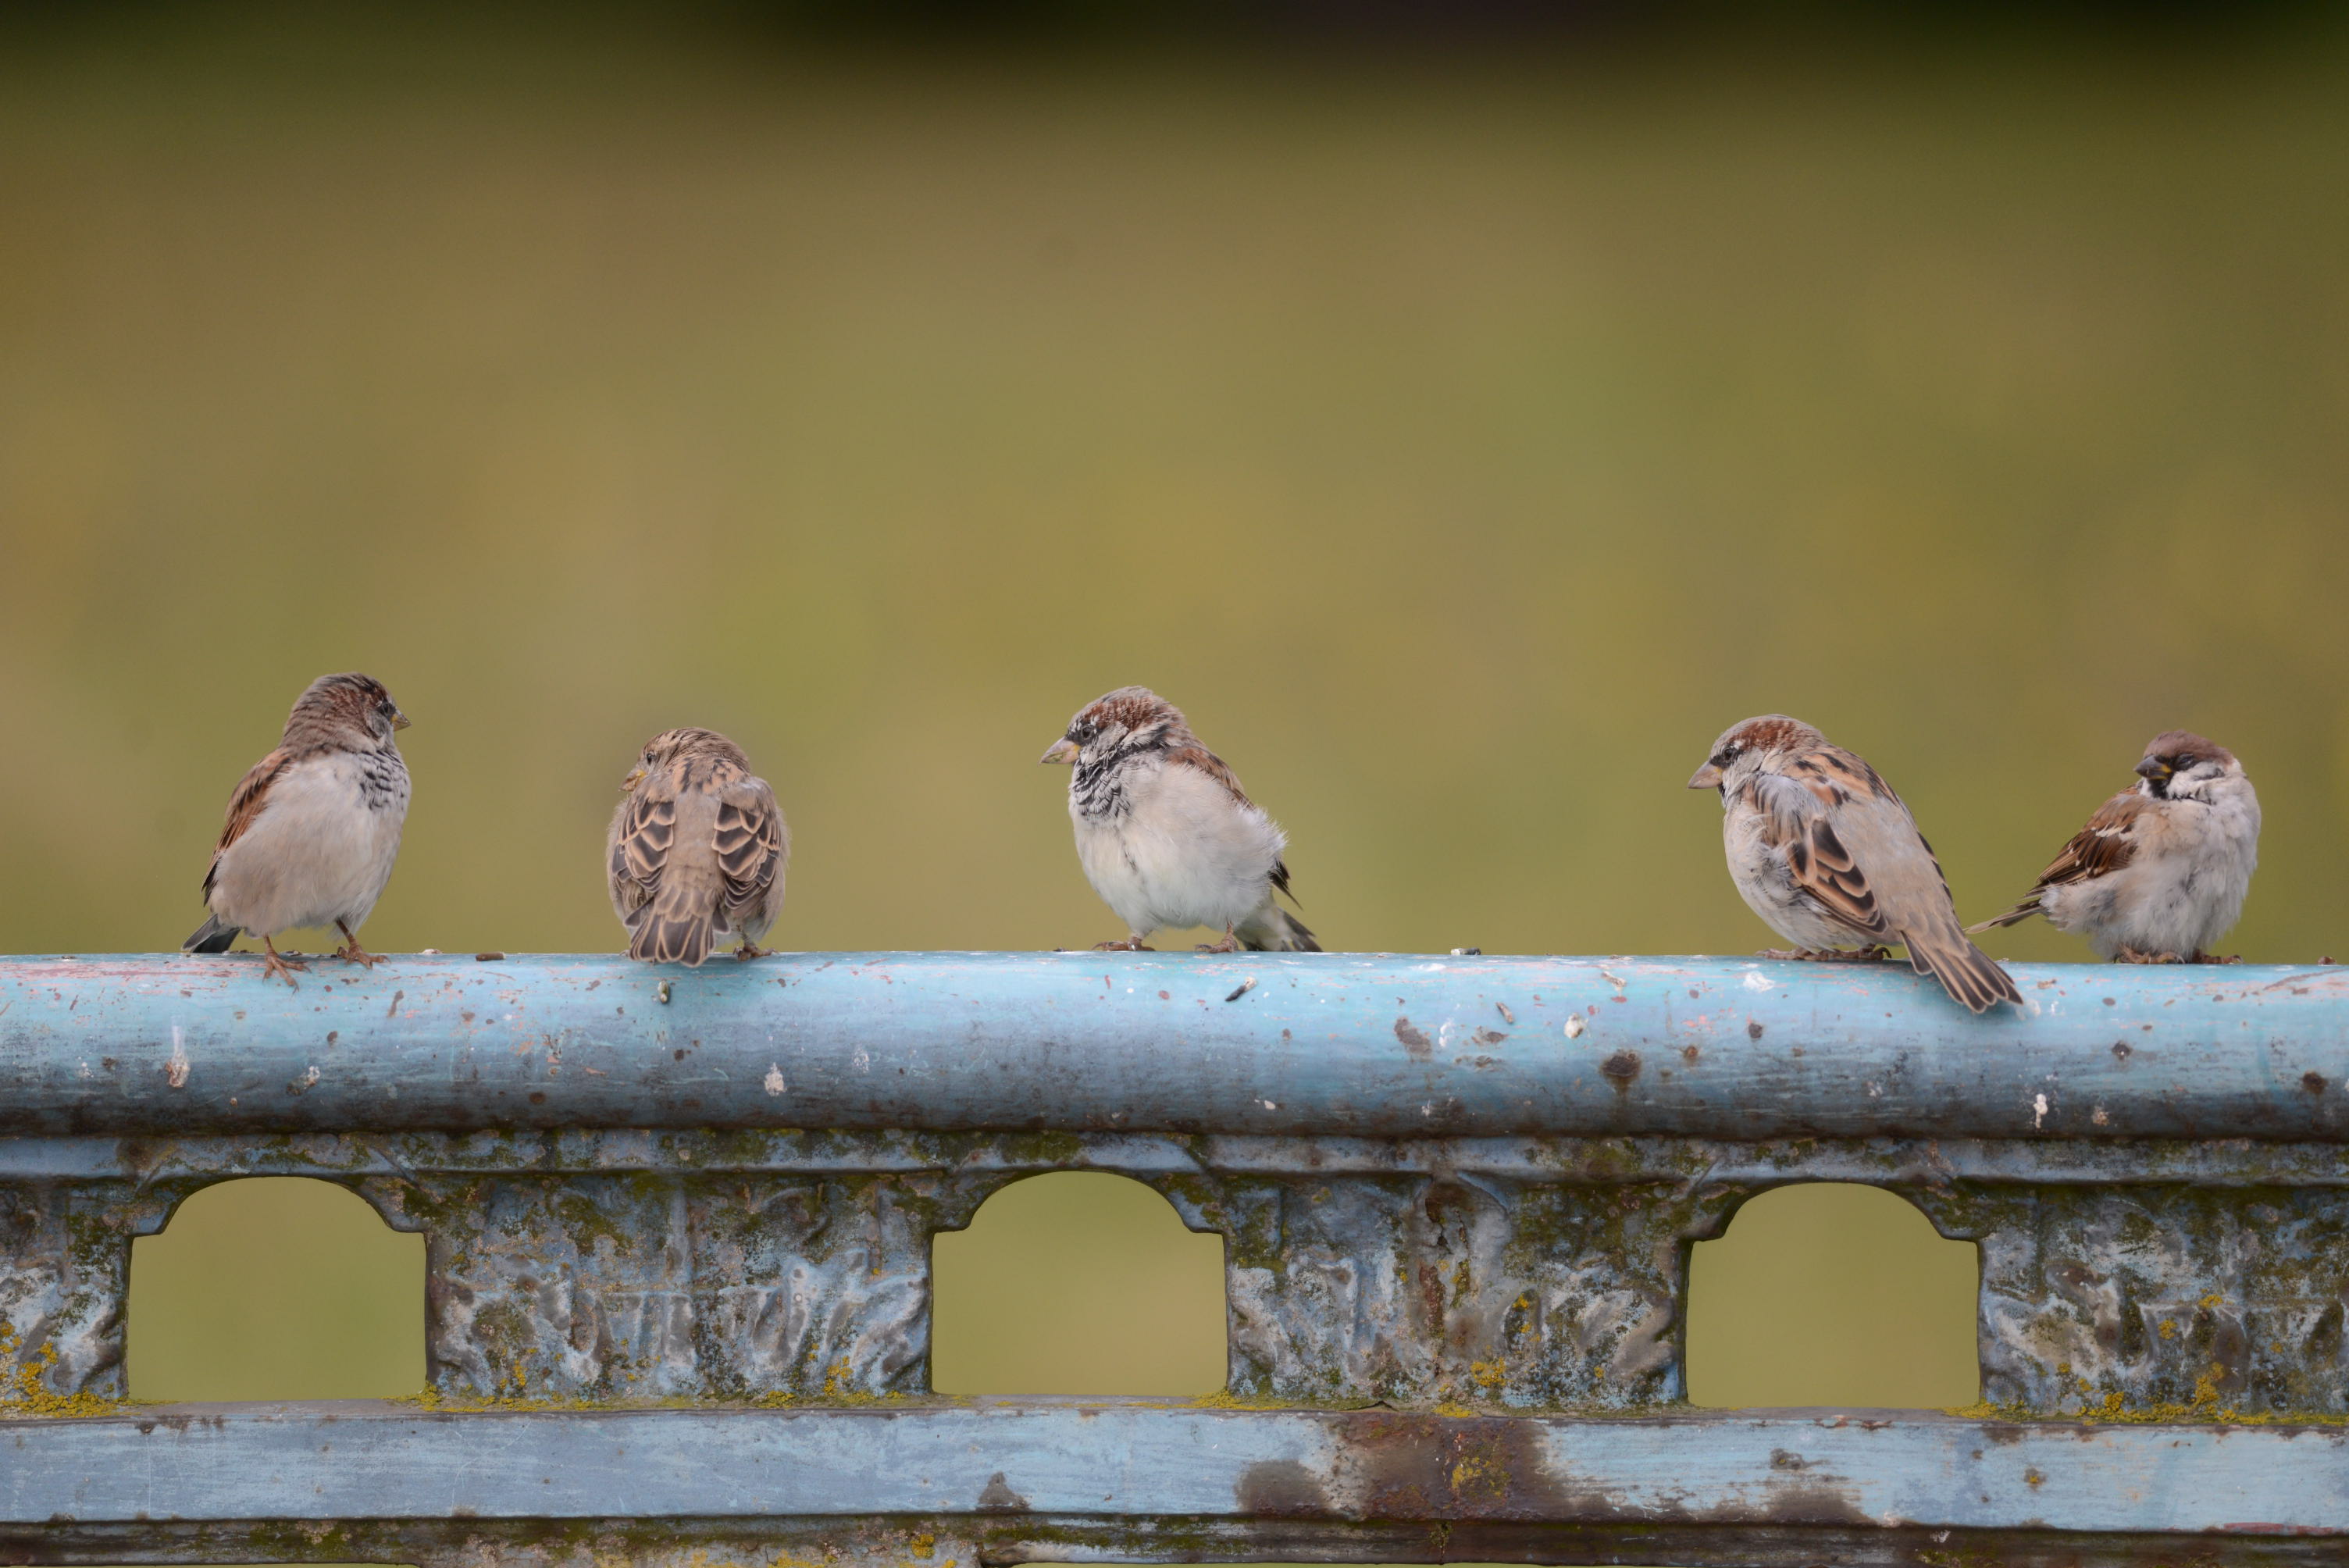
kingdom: Animalia
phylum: Chordata
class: Aves
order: Passeriformes
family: Passeridae
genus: Passer
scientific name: Passer domesticus
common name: House sparrow
